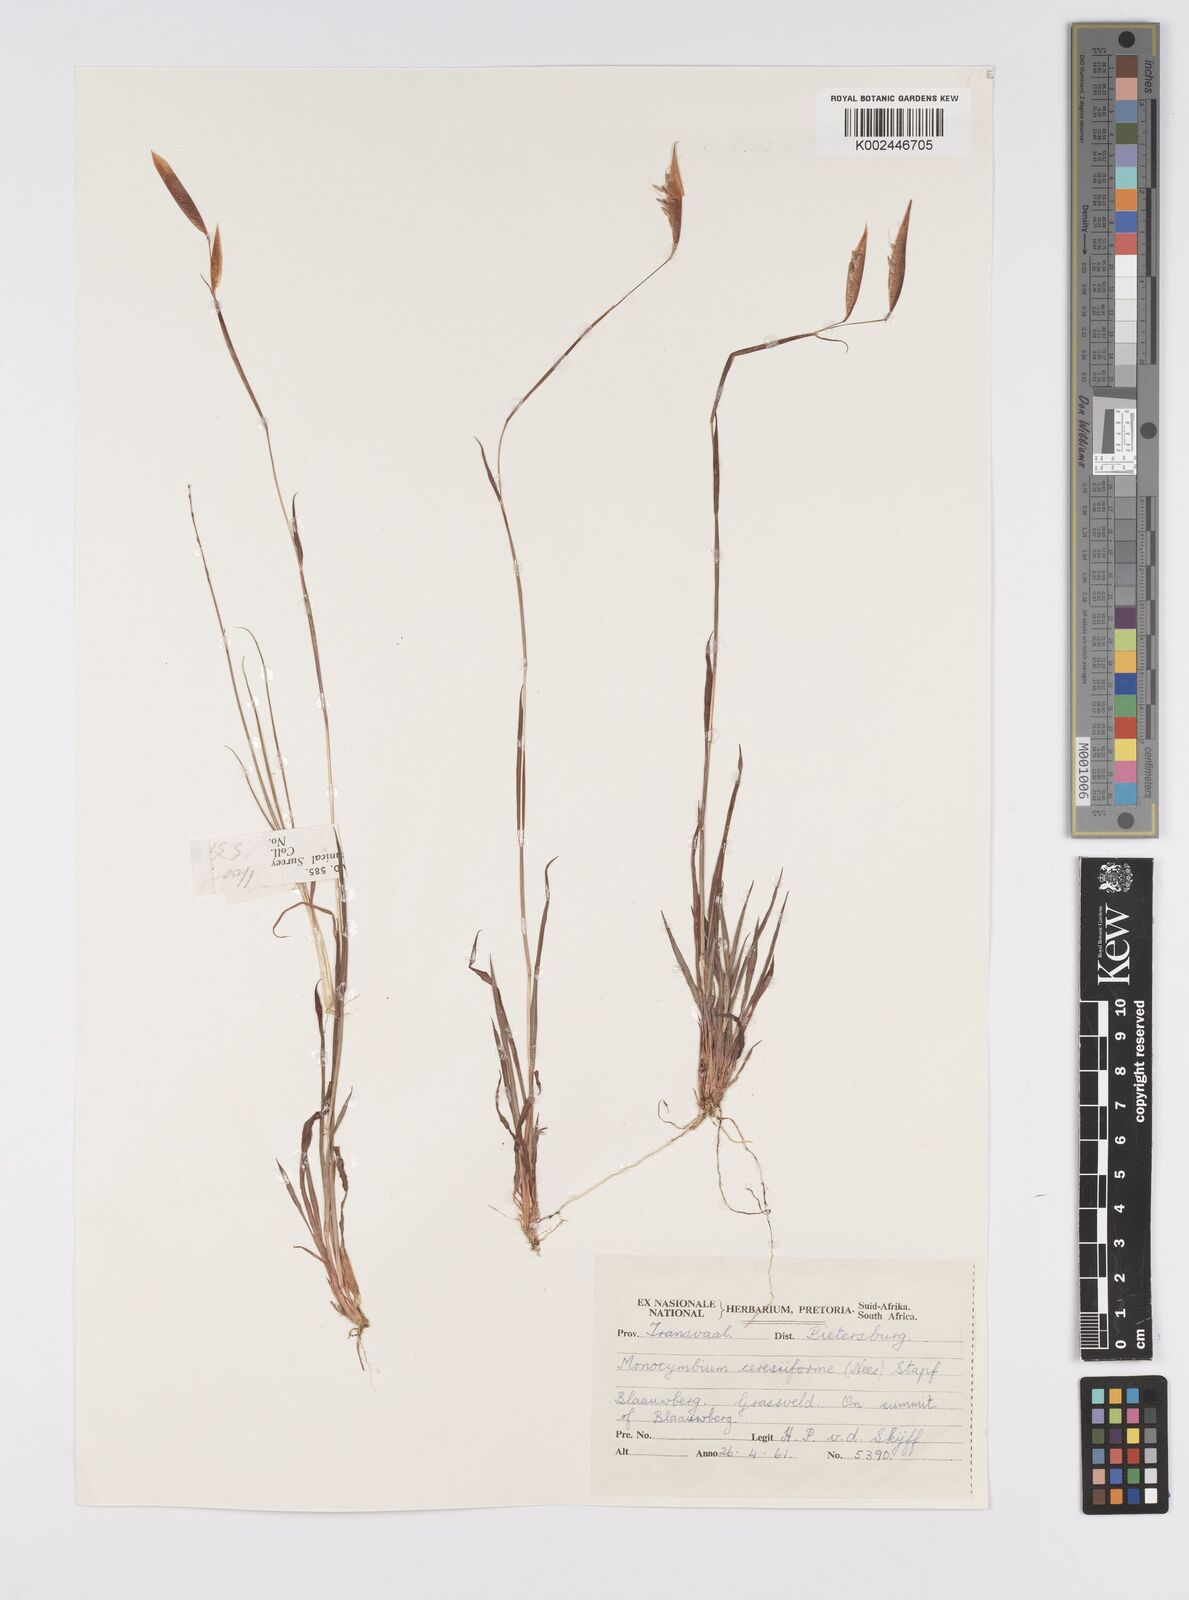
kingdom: Plantae
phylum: Tracheophyta
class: Liliopsida
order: Poales
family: Poaceae
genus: Monocymbium
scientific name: Monocymbium ceresiiforme
